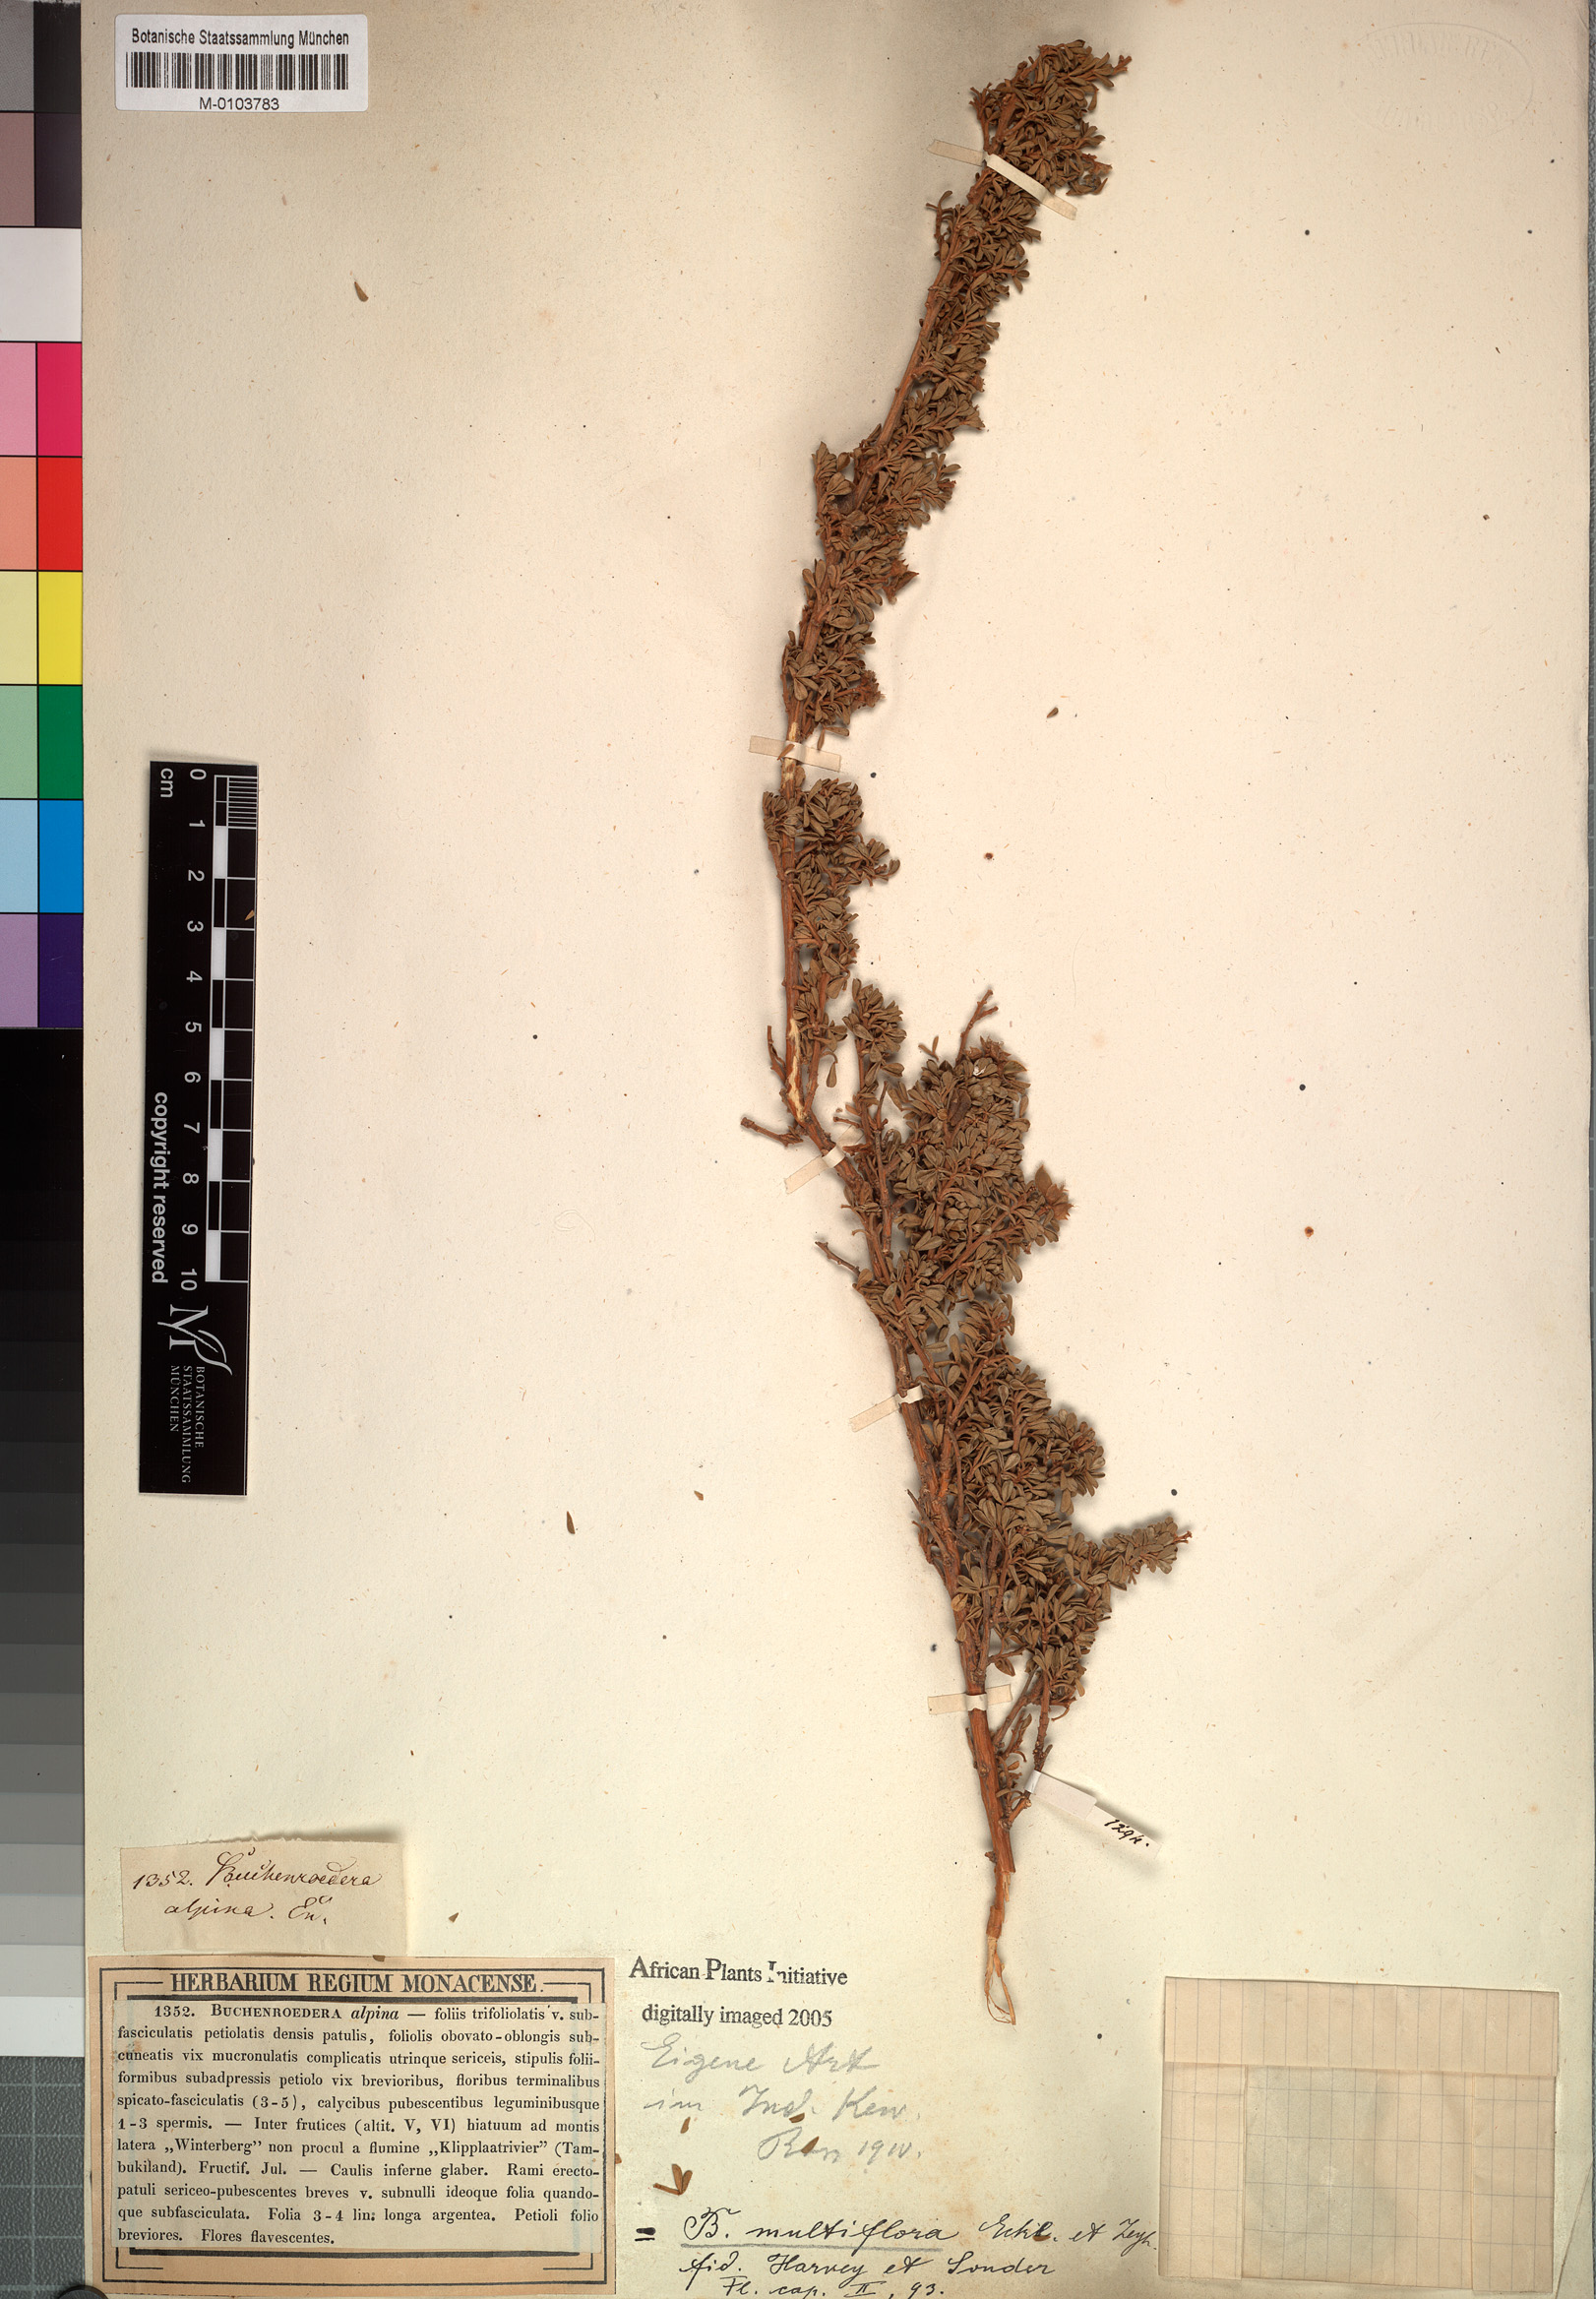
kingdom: Plantae
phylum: Tracheophyta
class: Magnoliopsida
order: Fabales
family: Fabaceae
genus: Lotononis
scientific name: Lotononis alpina
